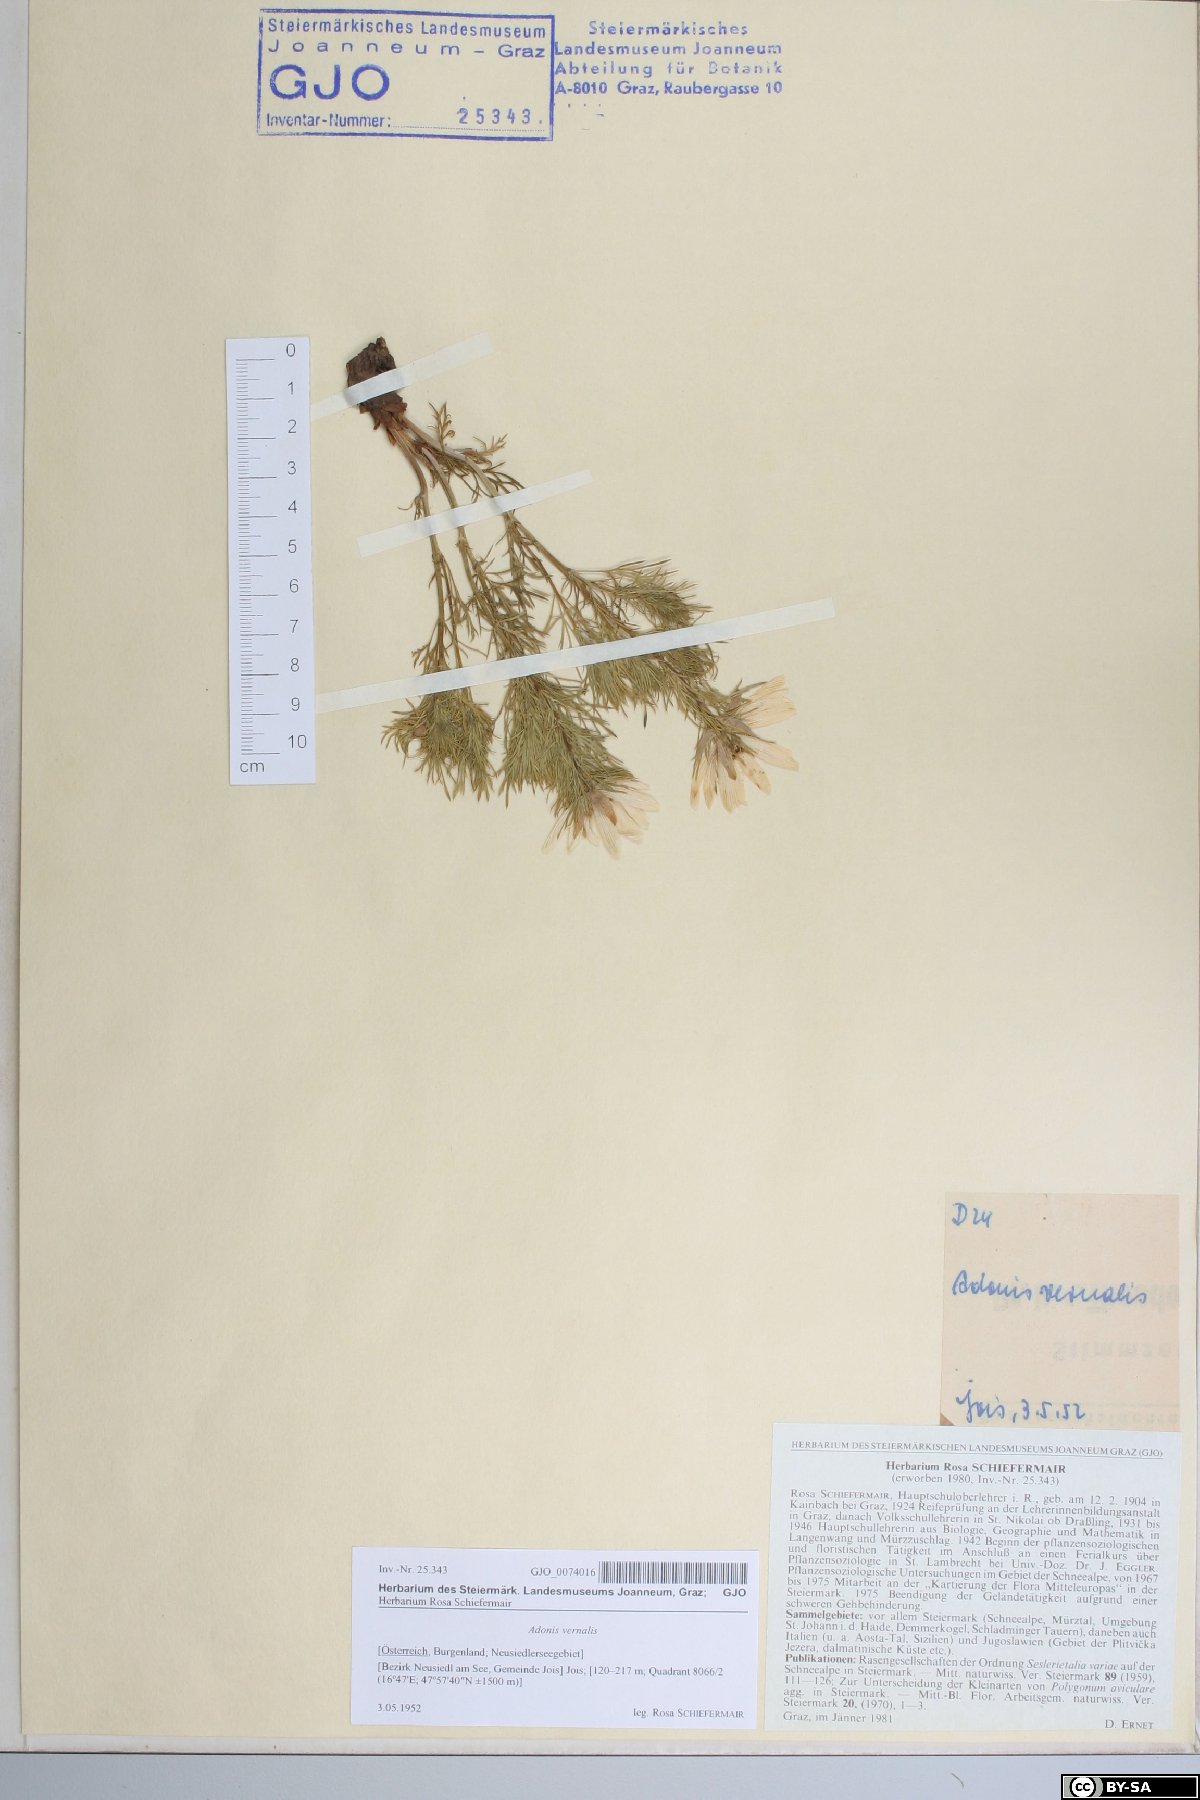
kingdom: Plantae
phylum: Tracheophyta
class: Magnoliopsida
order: Ranunculales
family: Ranunculaceae
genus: Adonis
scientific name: Adonis vernalis
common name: Yellow pheasants-eye
